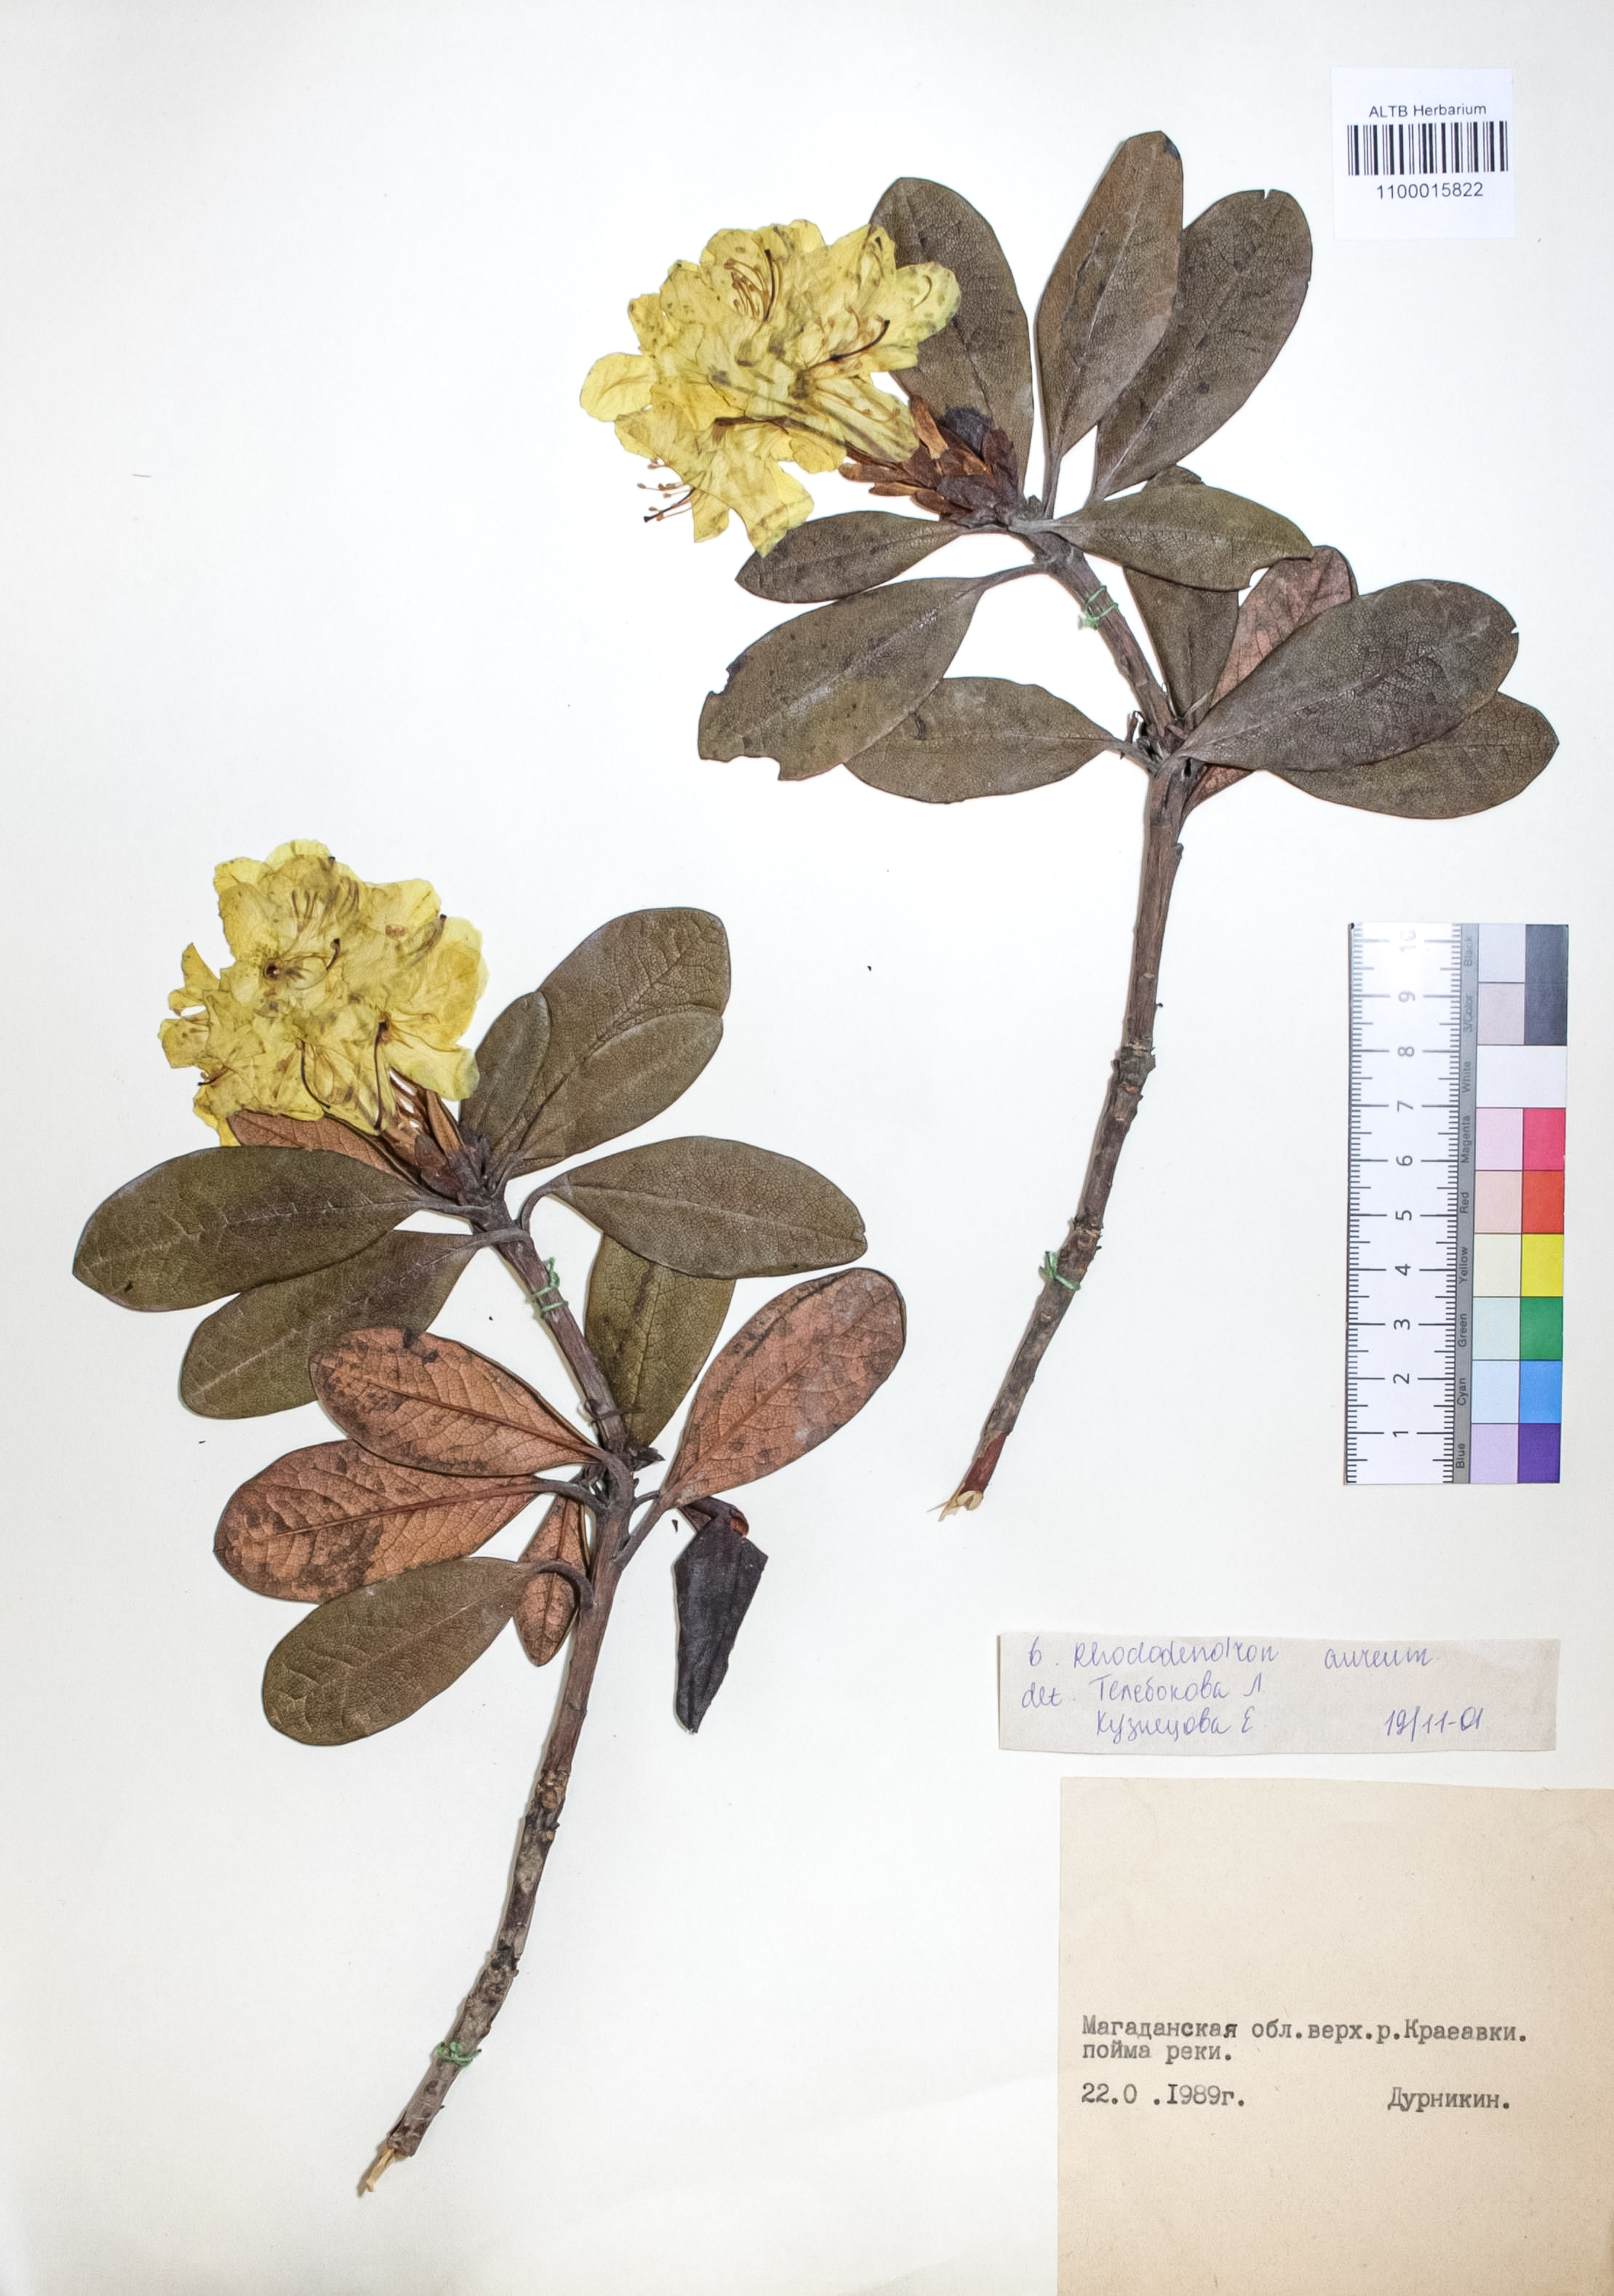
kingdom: Plantae
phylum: Tracheophyta
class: Magnoliopsida
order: Ericales
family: Ericaceae
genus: Rhododendron
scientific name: Rhododendron aureum
